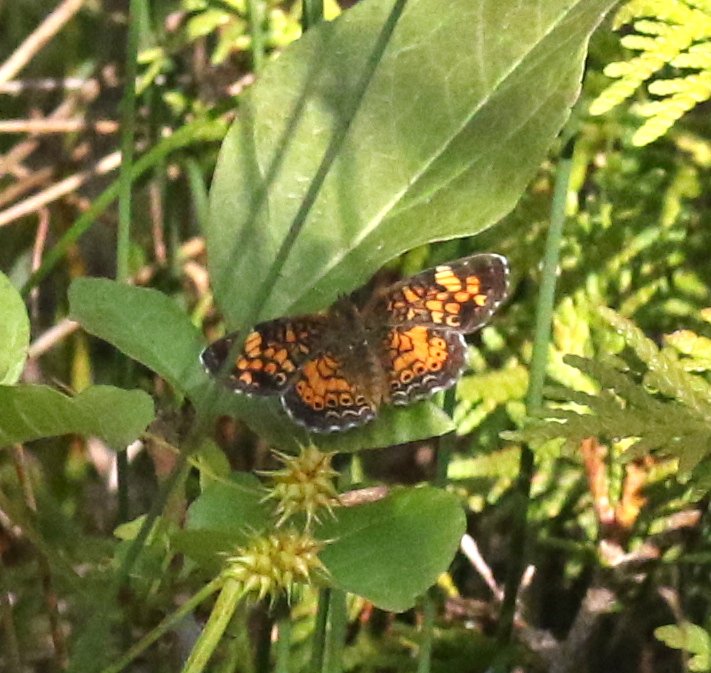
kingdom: Animalia
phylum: Arthropoda
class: Insecta
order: Lepidoptera
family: Nymphalidae
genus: Phyciodes
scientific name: Phyciodes tharos
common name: Northern Crescent
